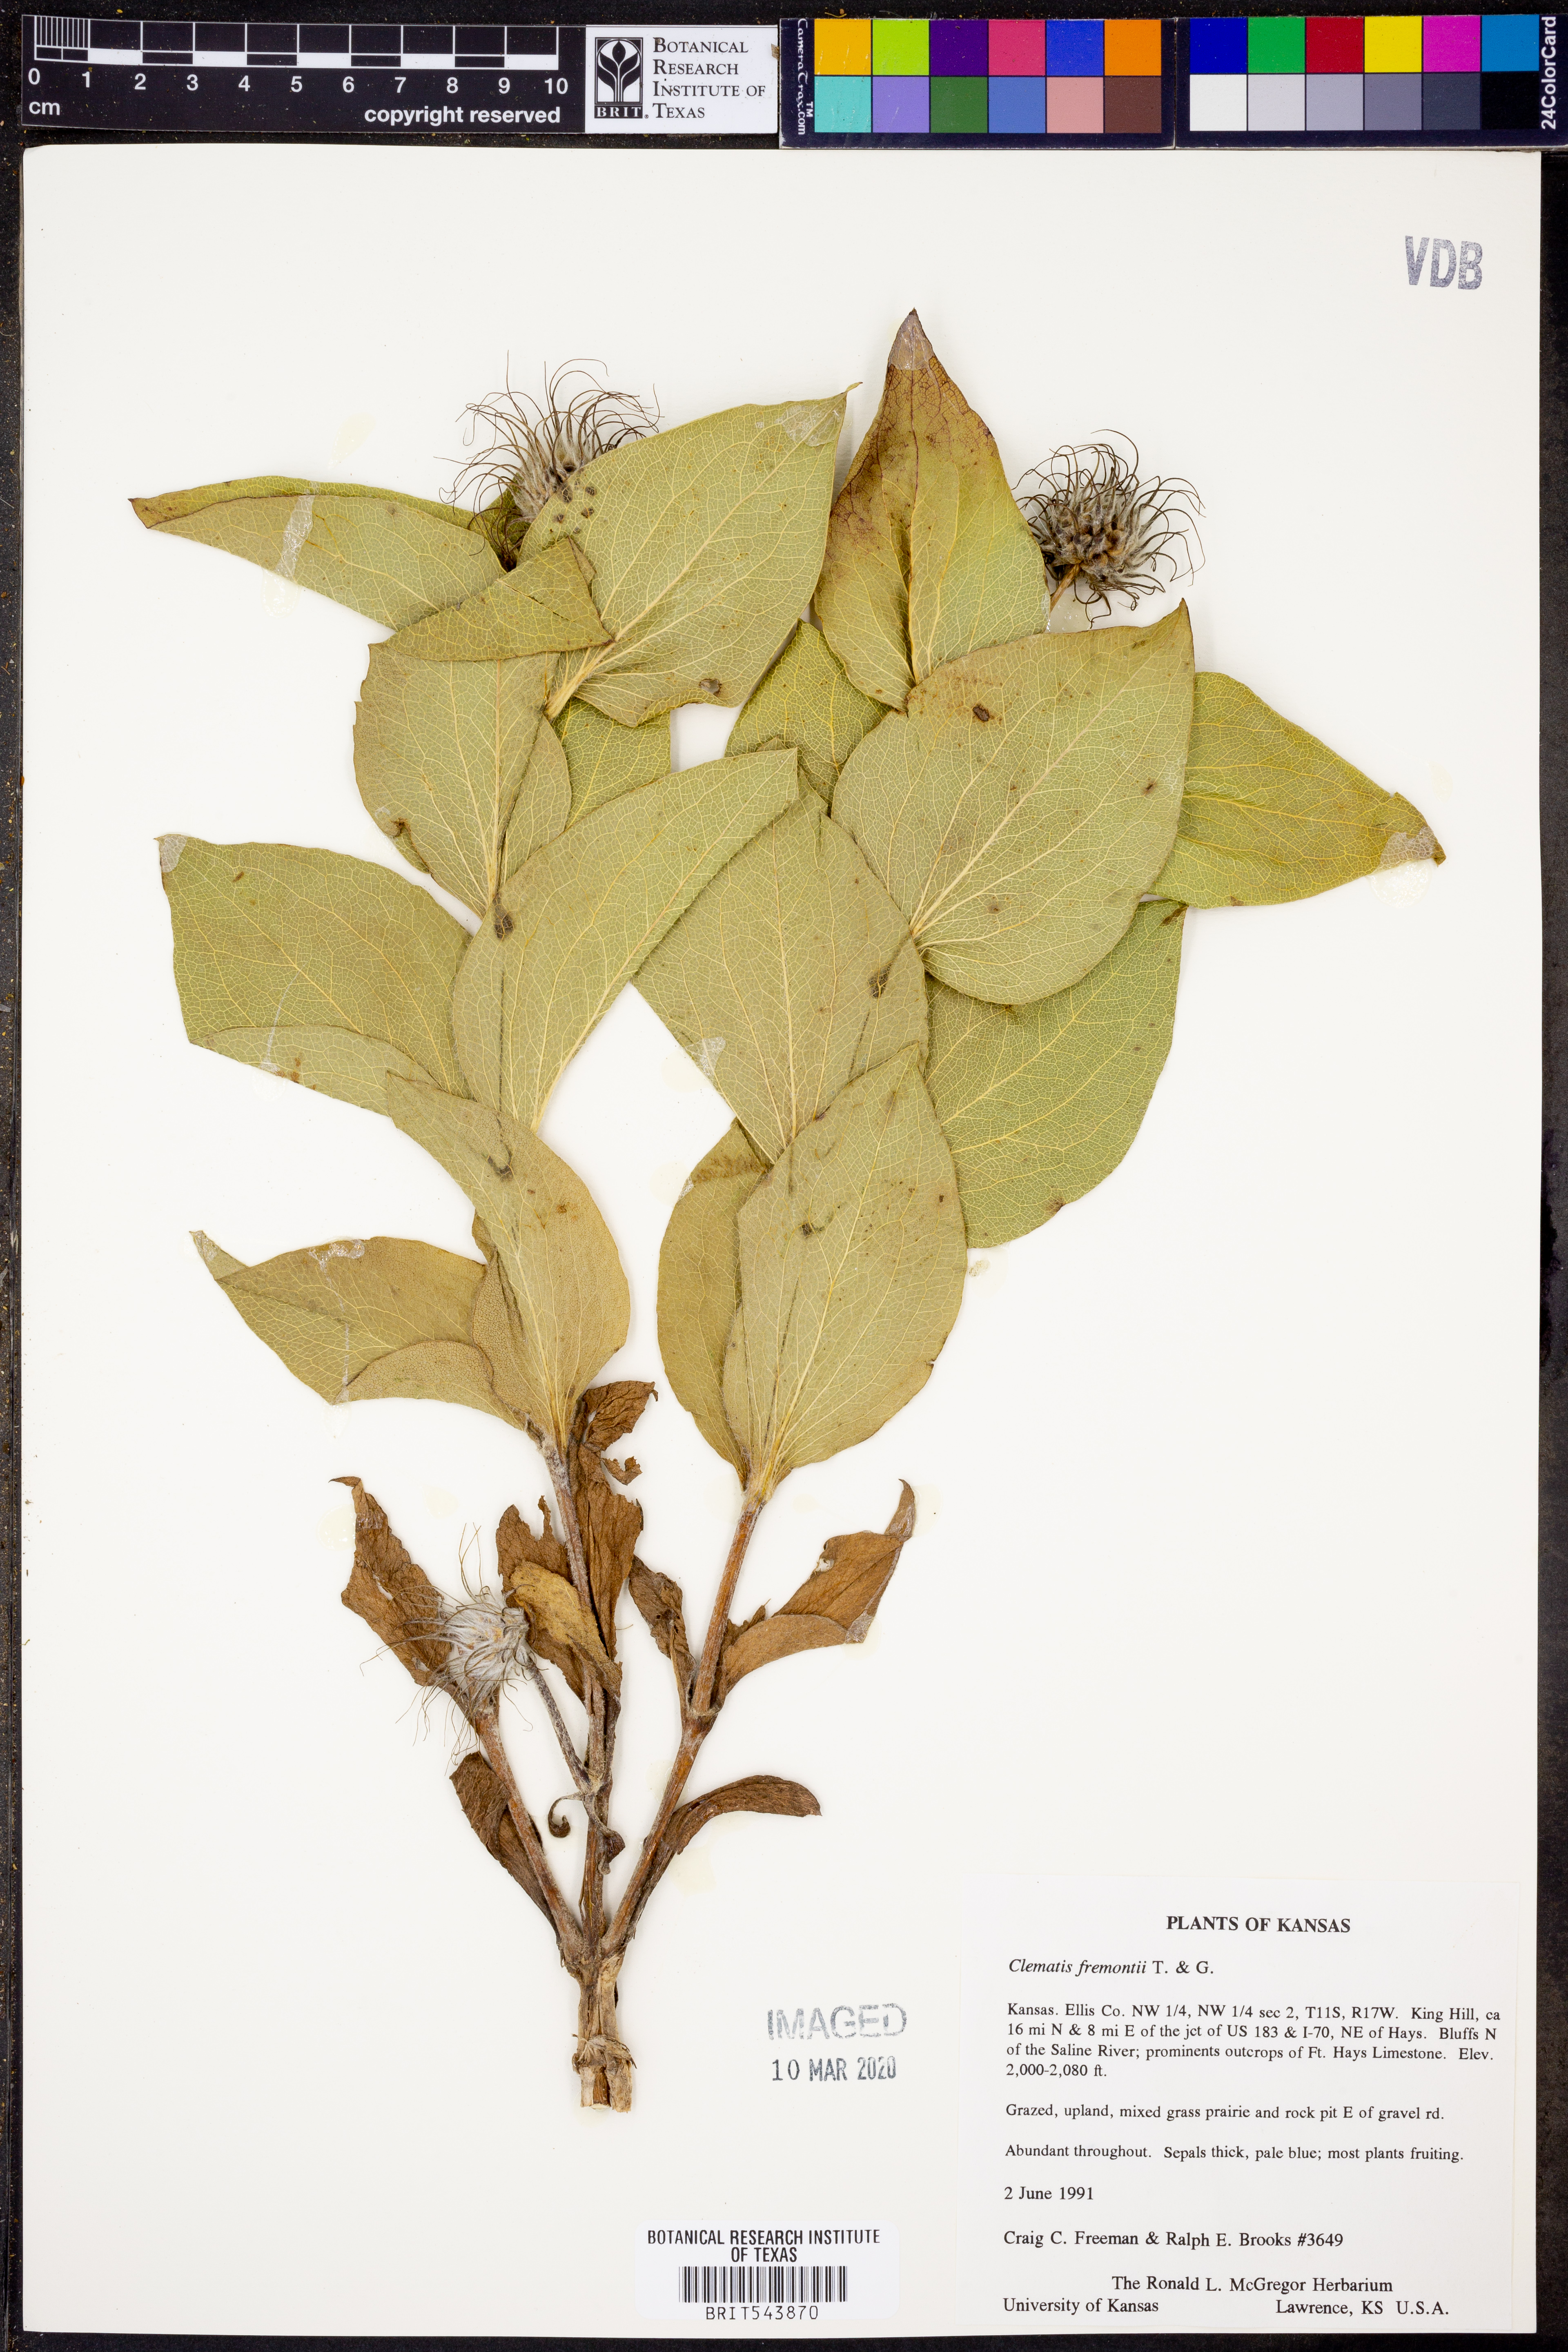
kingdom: Plantae
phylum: Tracheophyta
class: Magnoliopsida
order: Ranunculales
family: Ranunculaceae
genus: Clematis
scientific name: Clematis fremontii
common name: Fremont's clematis
